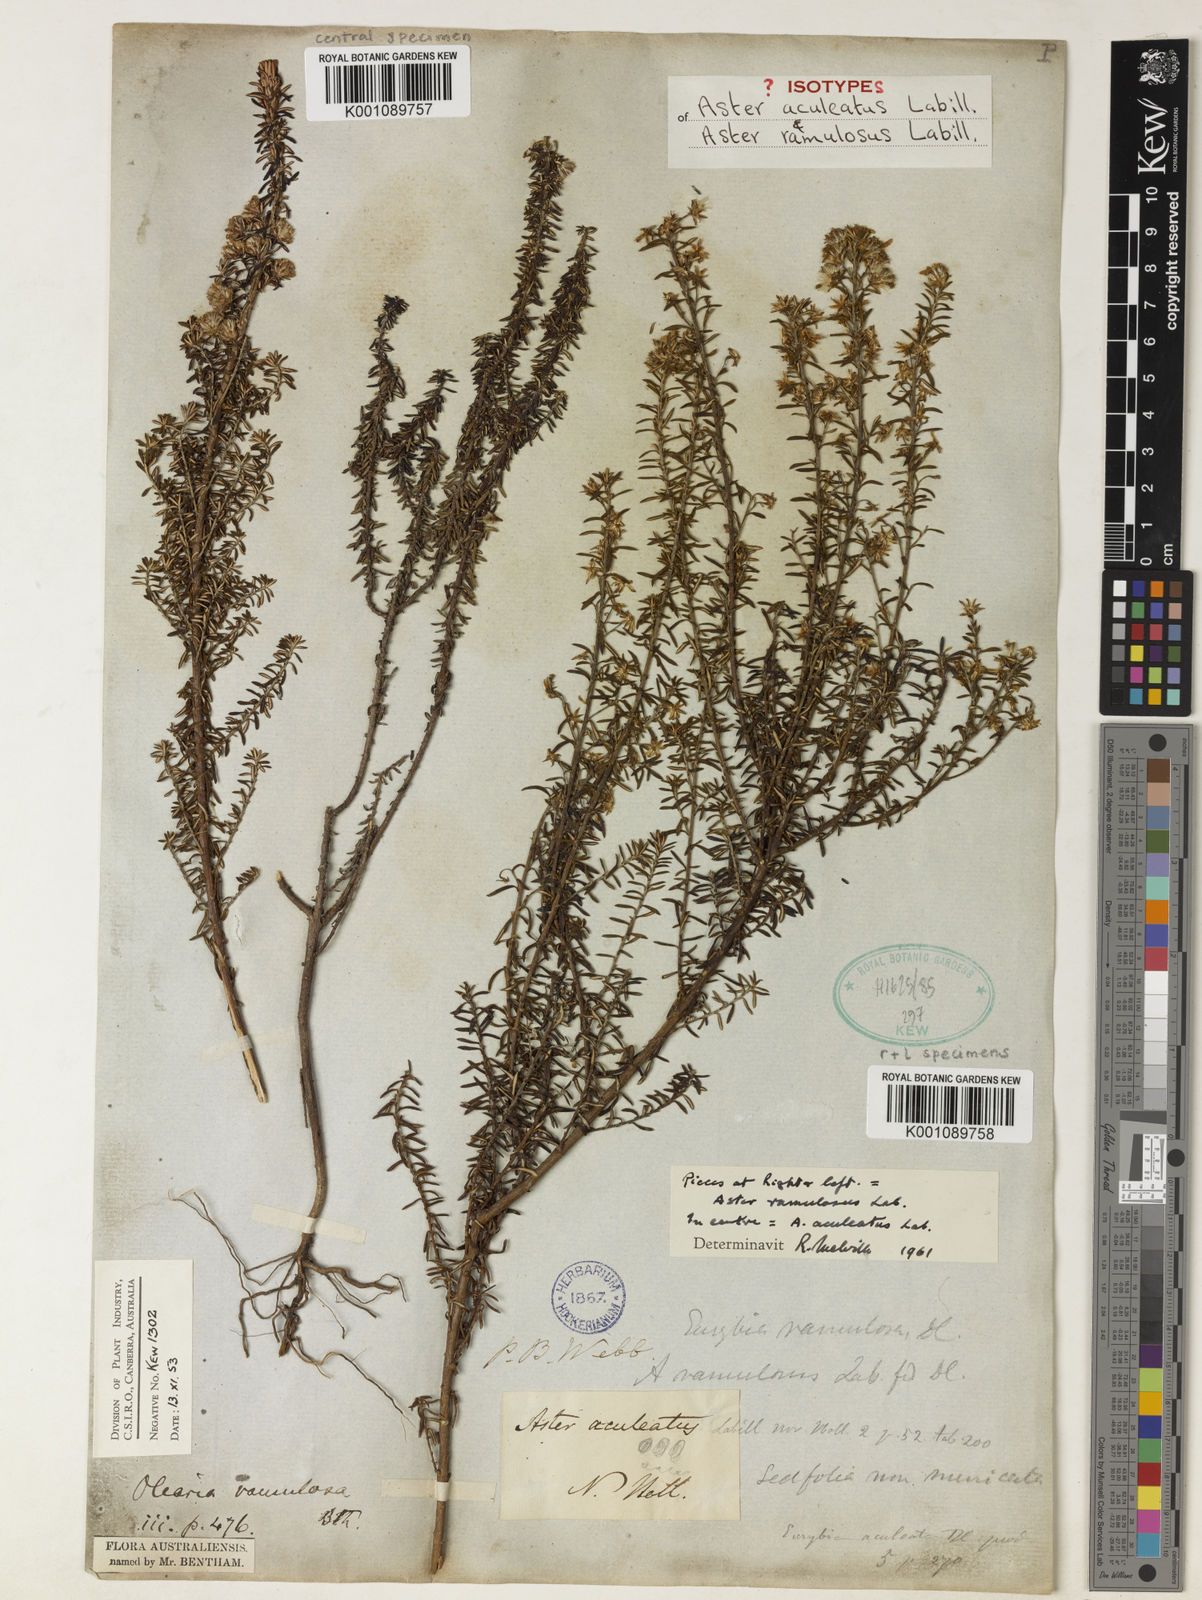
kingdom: Plantae
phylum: Tracheophyta
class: Magnoliopsida
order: Asterales
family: Asteraceae
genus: Olearia
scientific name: Olearia ramulosa
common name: Twiggy daisybush
